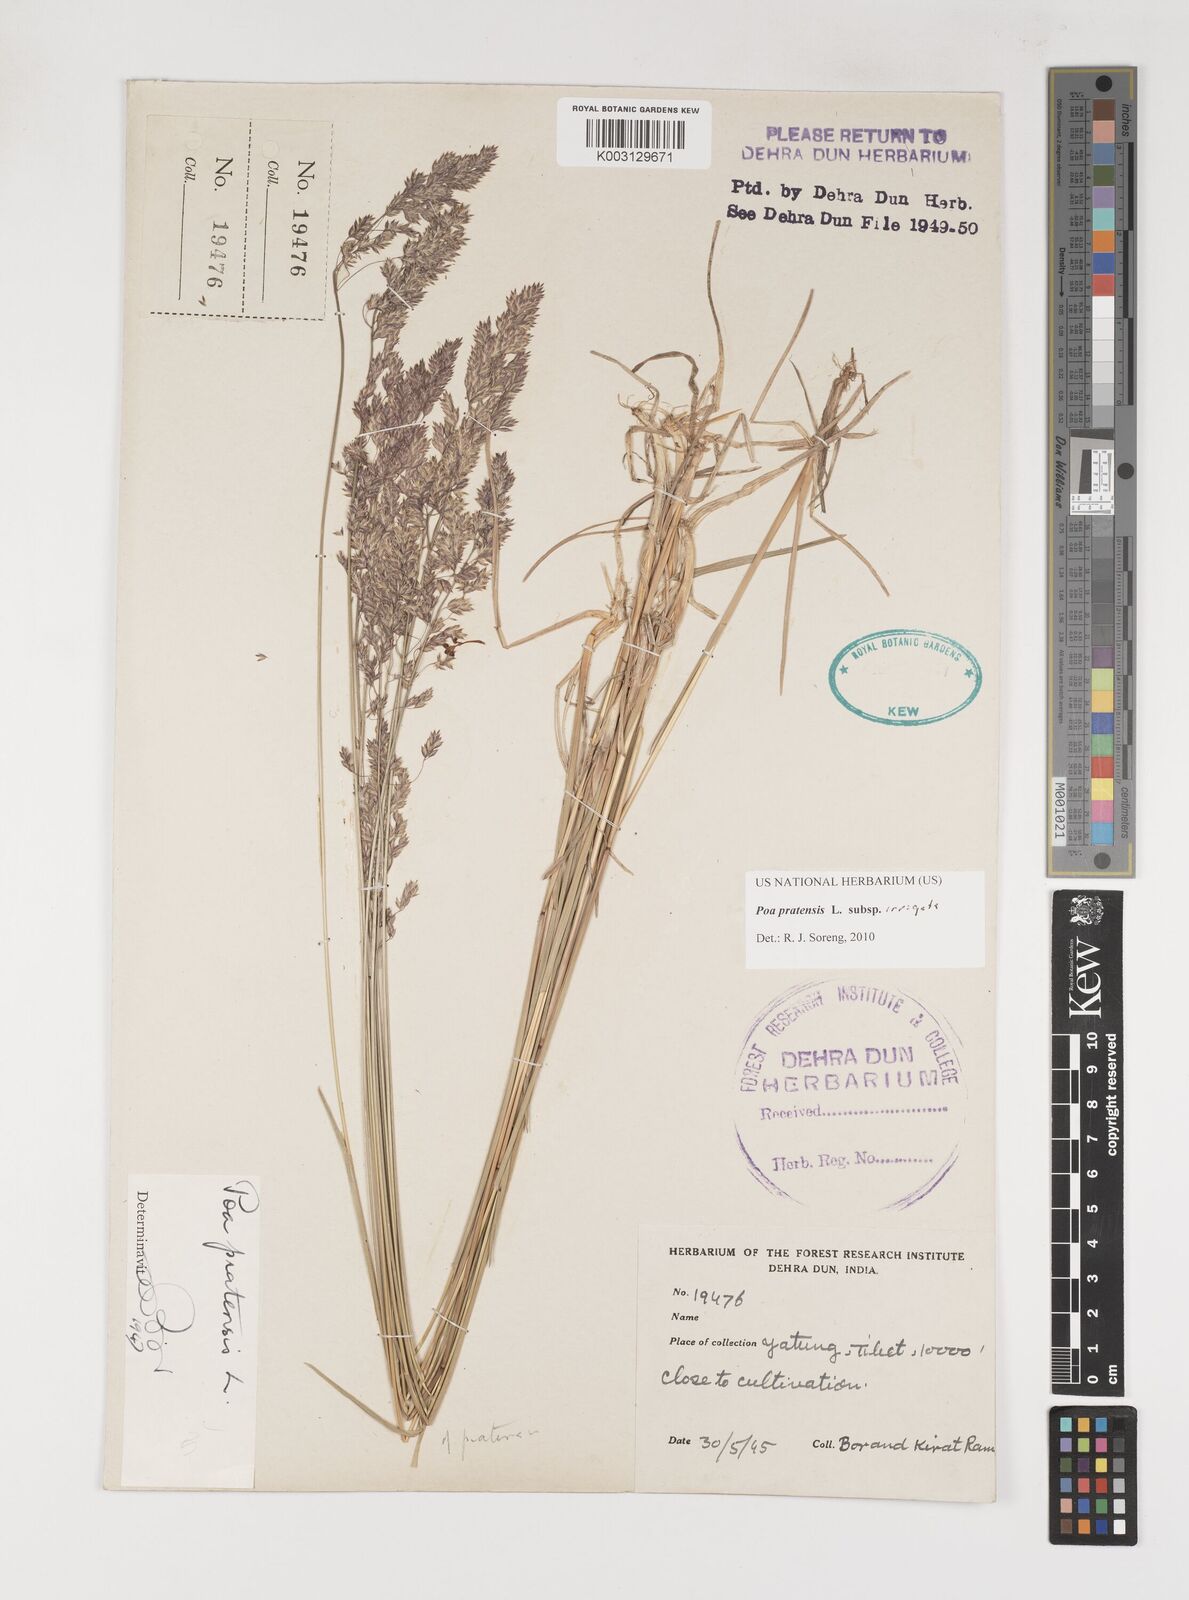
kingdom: Plantae
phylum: Tracheophyta
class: Liliopsida
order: Poales
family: Poaceae
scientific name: Poaceae
